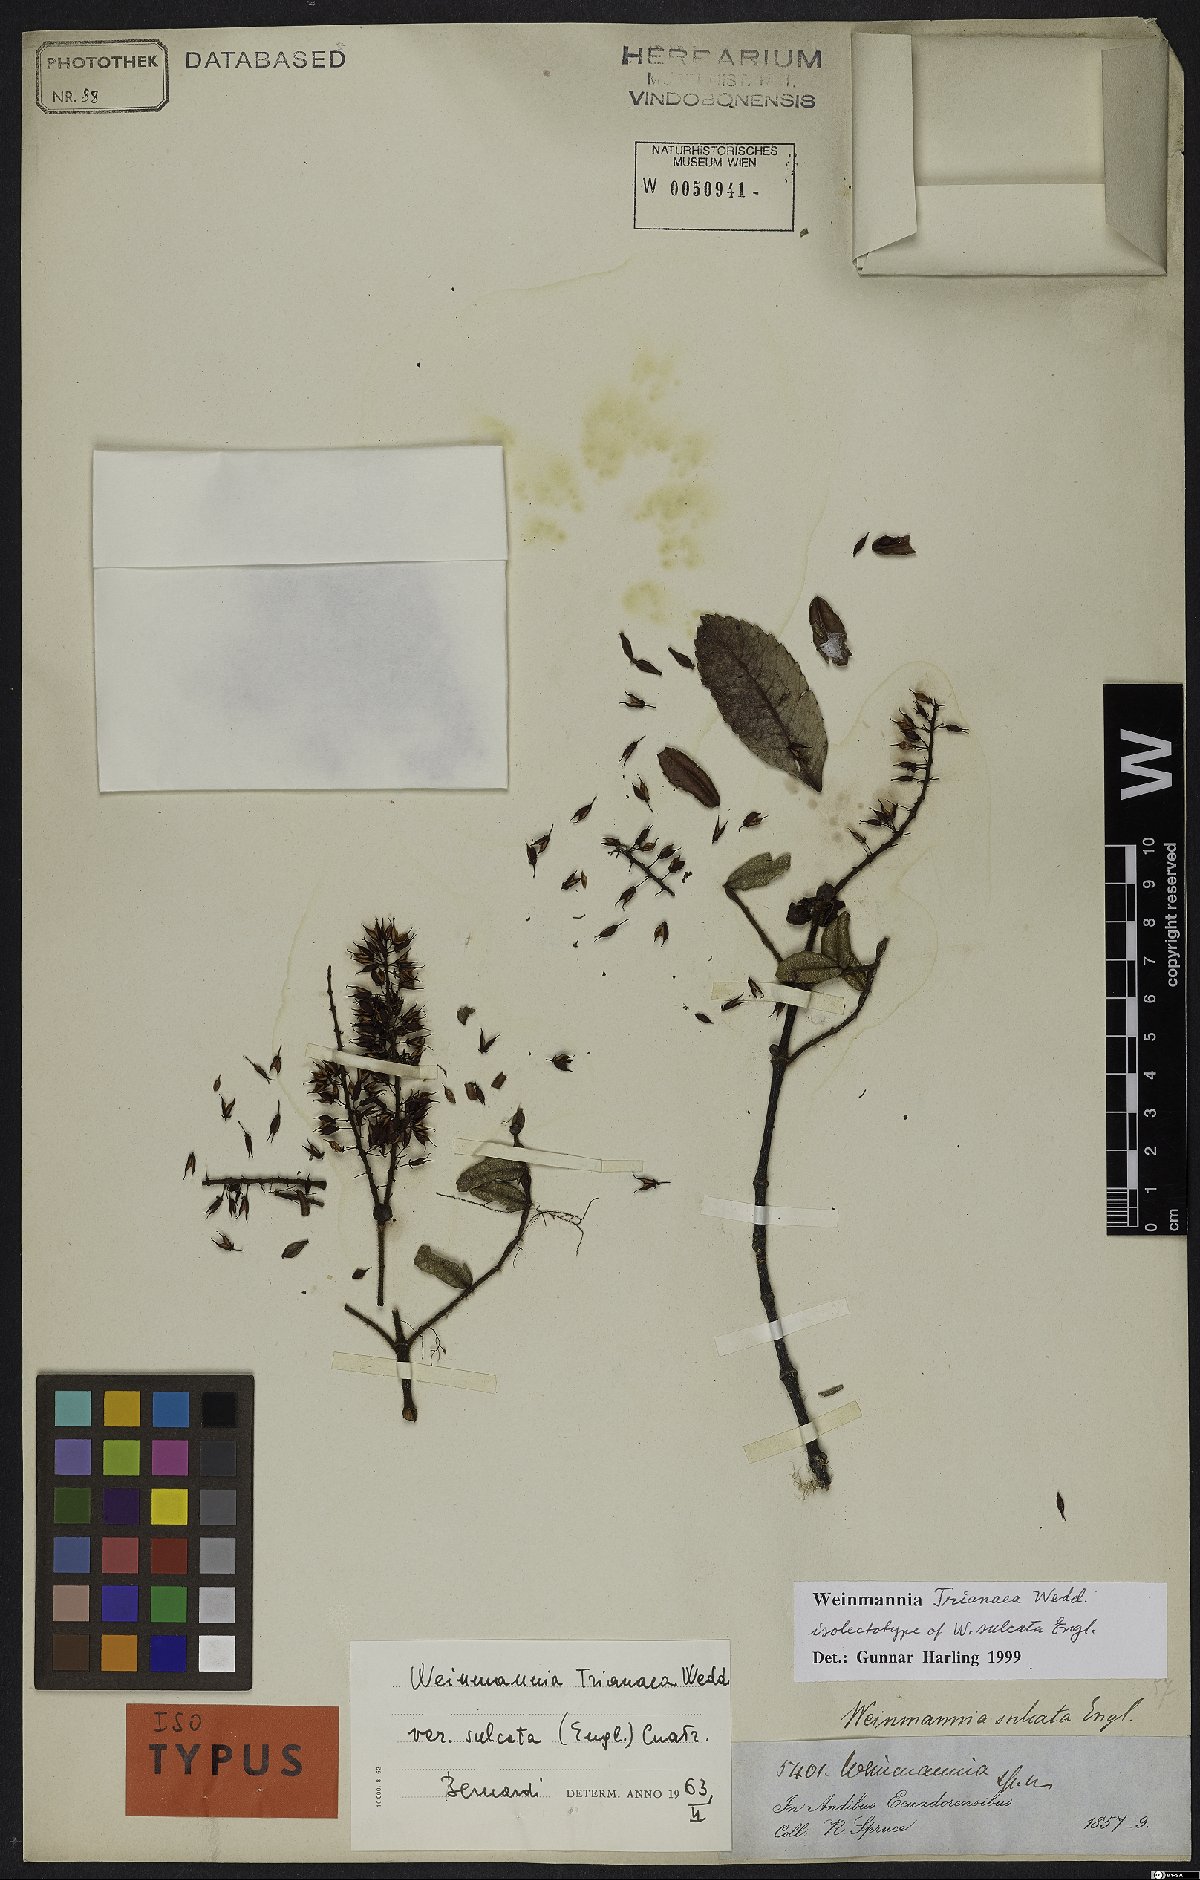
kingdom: Plantae
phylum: Tracheophyta
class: Magnoliopsida
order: Oxalidales
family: Cunoniaceae
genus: Weinmannia
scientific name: Weinmannia trianaea
